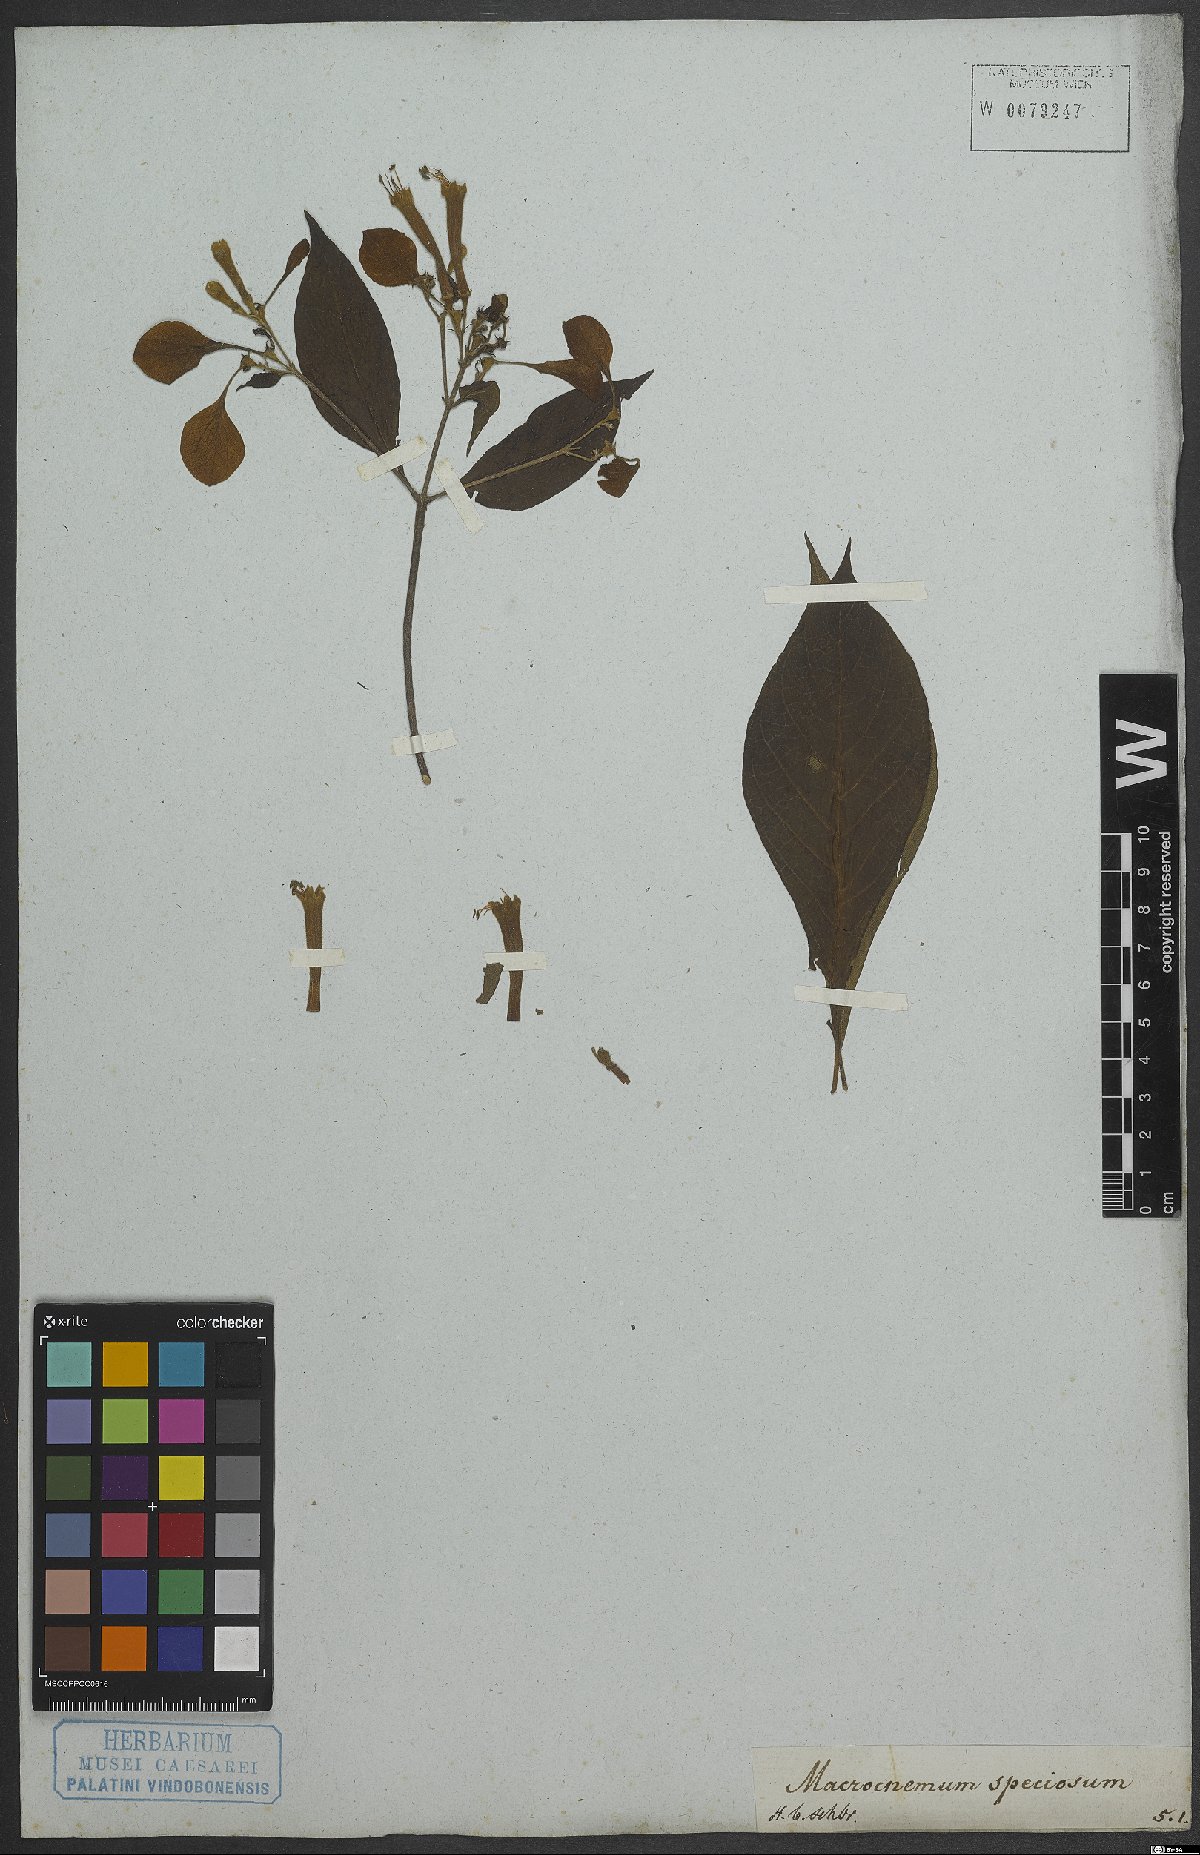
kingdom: Plantae
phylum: Tracheophyta
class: Magnoliopsida
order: Gentianales
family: Rubiaceae
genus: Pogonopus
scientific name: Pogonopus speciosus
